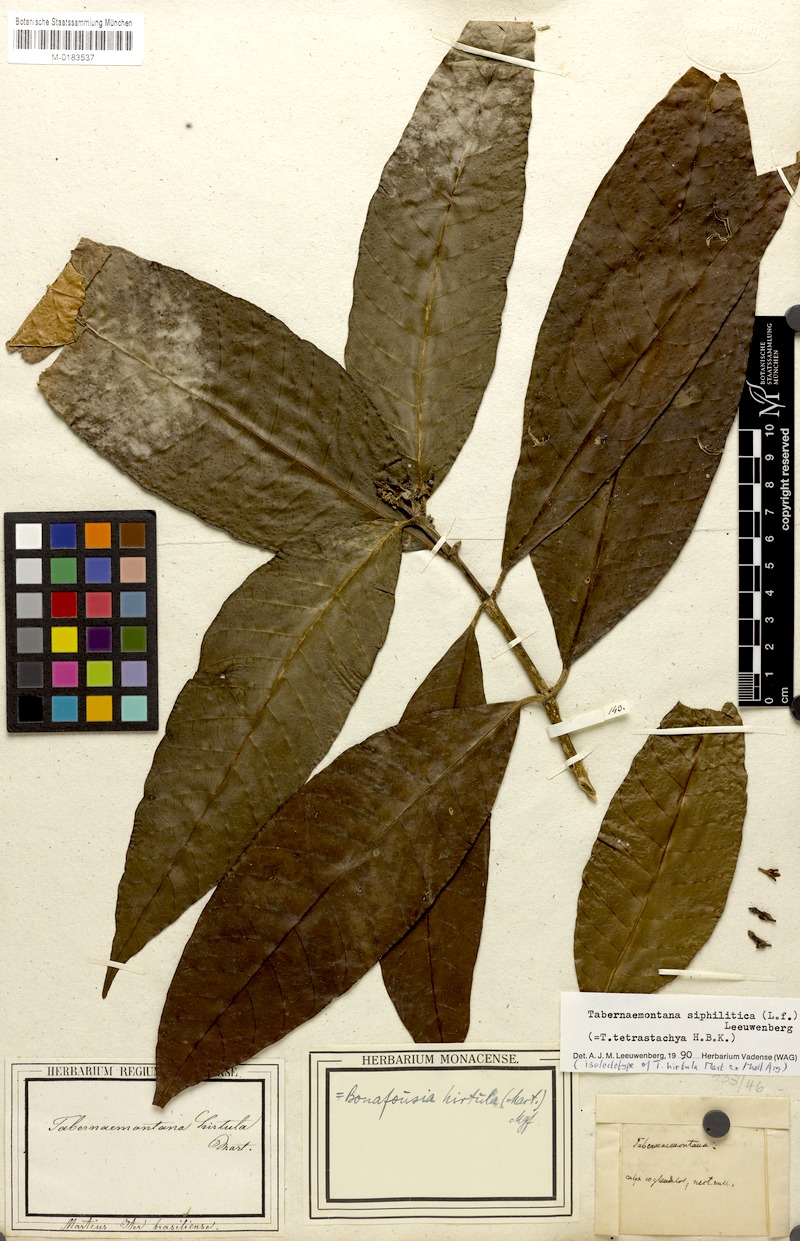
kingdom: Plantae
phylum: Tracheophyta
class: Magnoliopsida
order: Gentianales
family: Apocynaceae
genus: Tabernaemontana
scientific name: Tabernaemontana siphilitica
